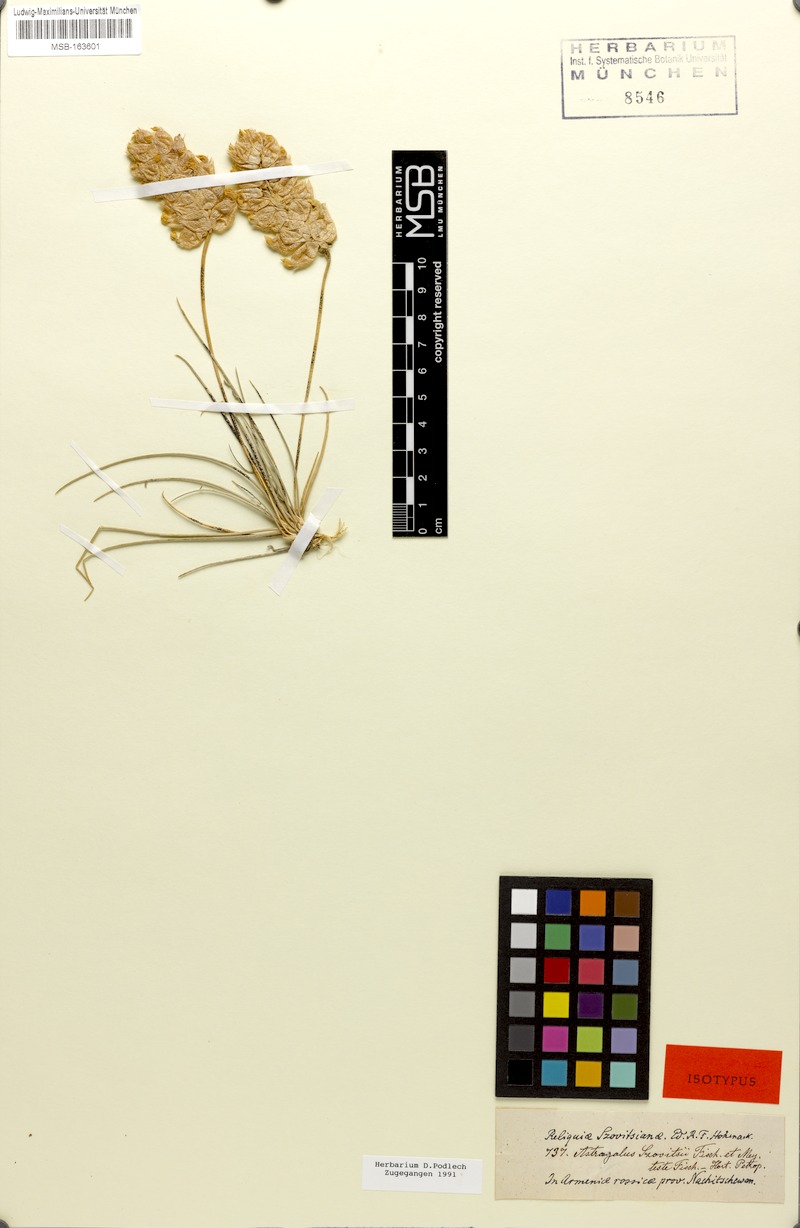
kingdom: Plantae
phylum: Tracheophyta
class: Magnoliopsida
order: Fabales
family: Fabaceae
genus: Astragalus
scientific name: Astragalus szovitsii
